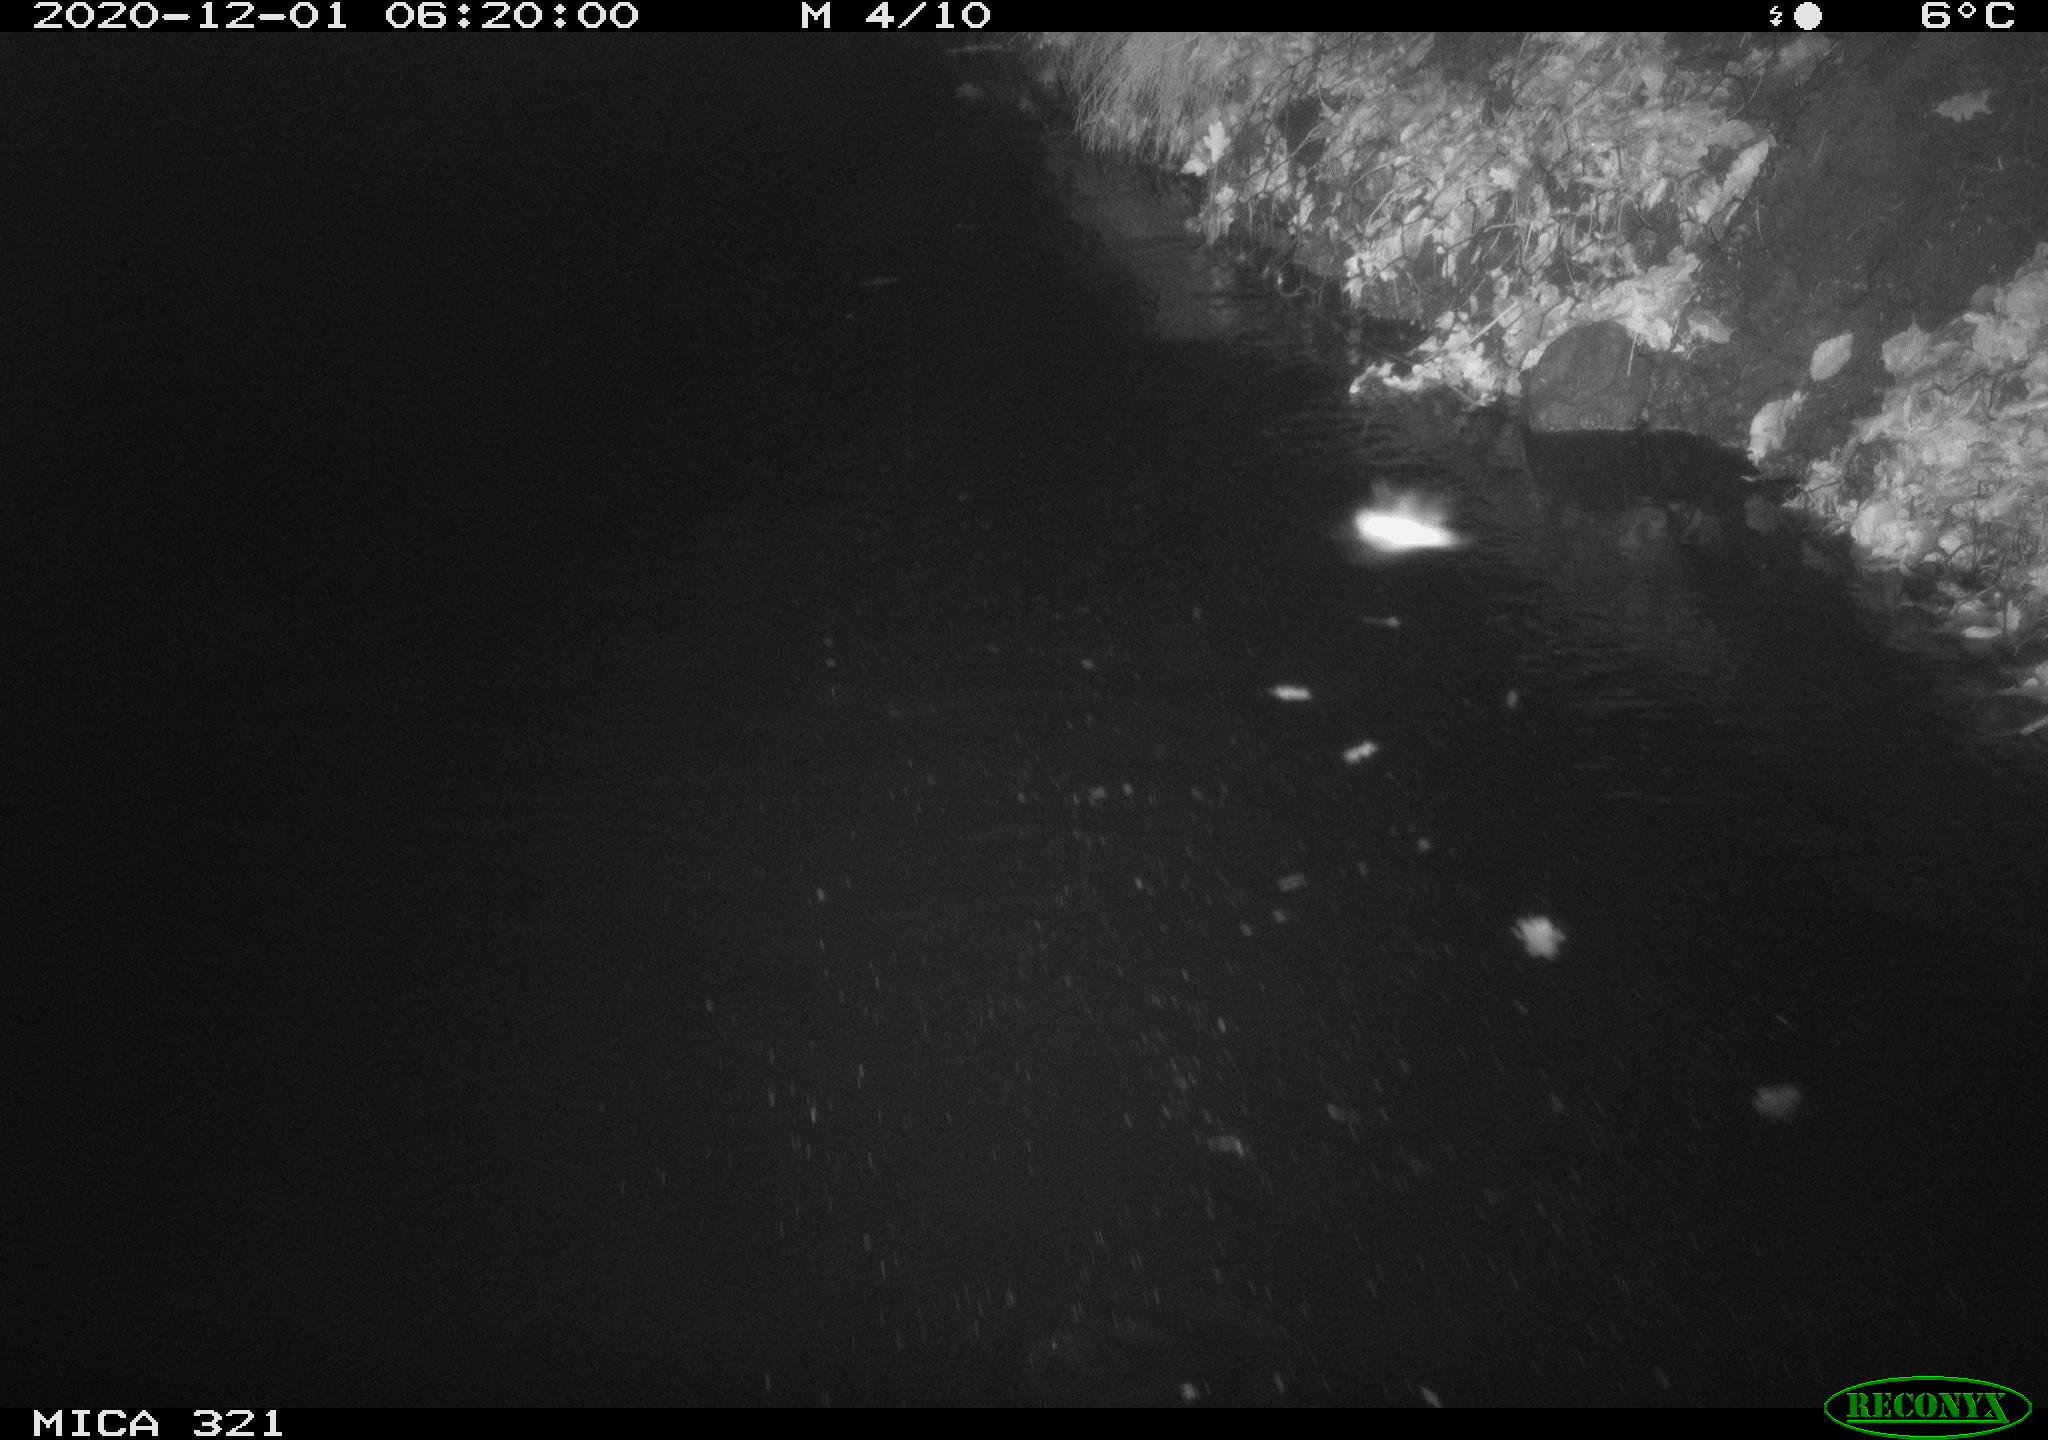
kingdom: Animalia
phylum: Chordata
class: Aves
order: Anseriformes
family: Anatidae
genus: Anas
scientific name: Anas platyrhynchos
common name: Mallard
